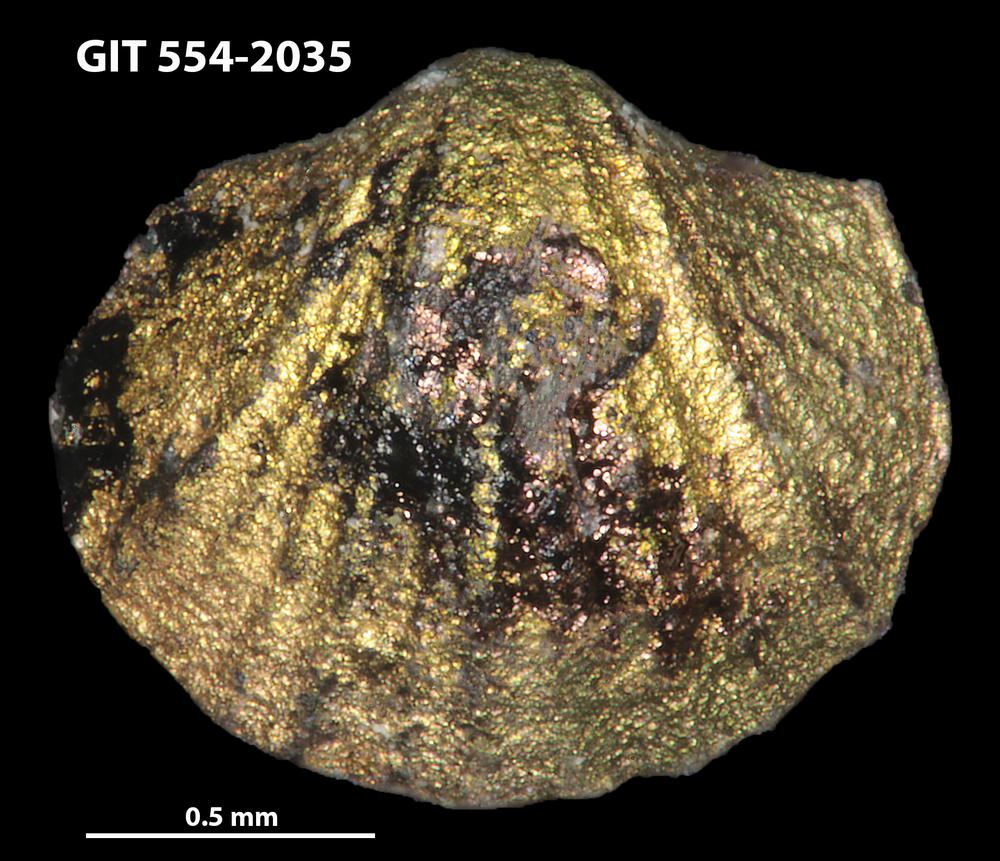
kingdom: Animalia
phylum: Brachiopoda
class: Rhynchonellata
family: Dalmanellidae
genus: Templeella
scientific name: Templeella
